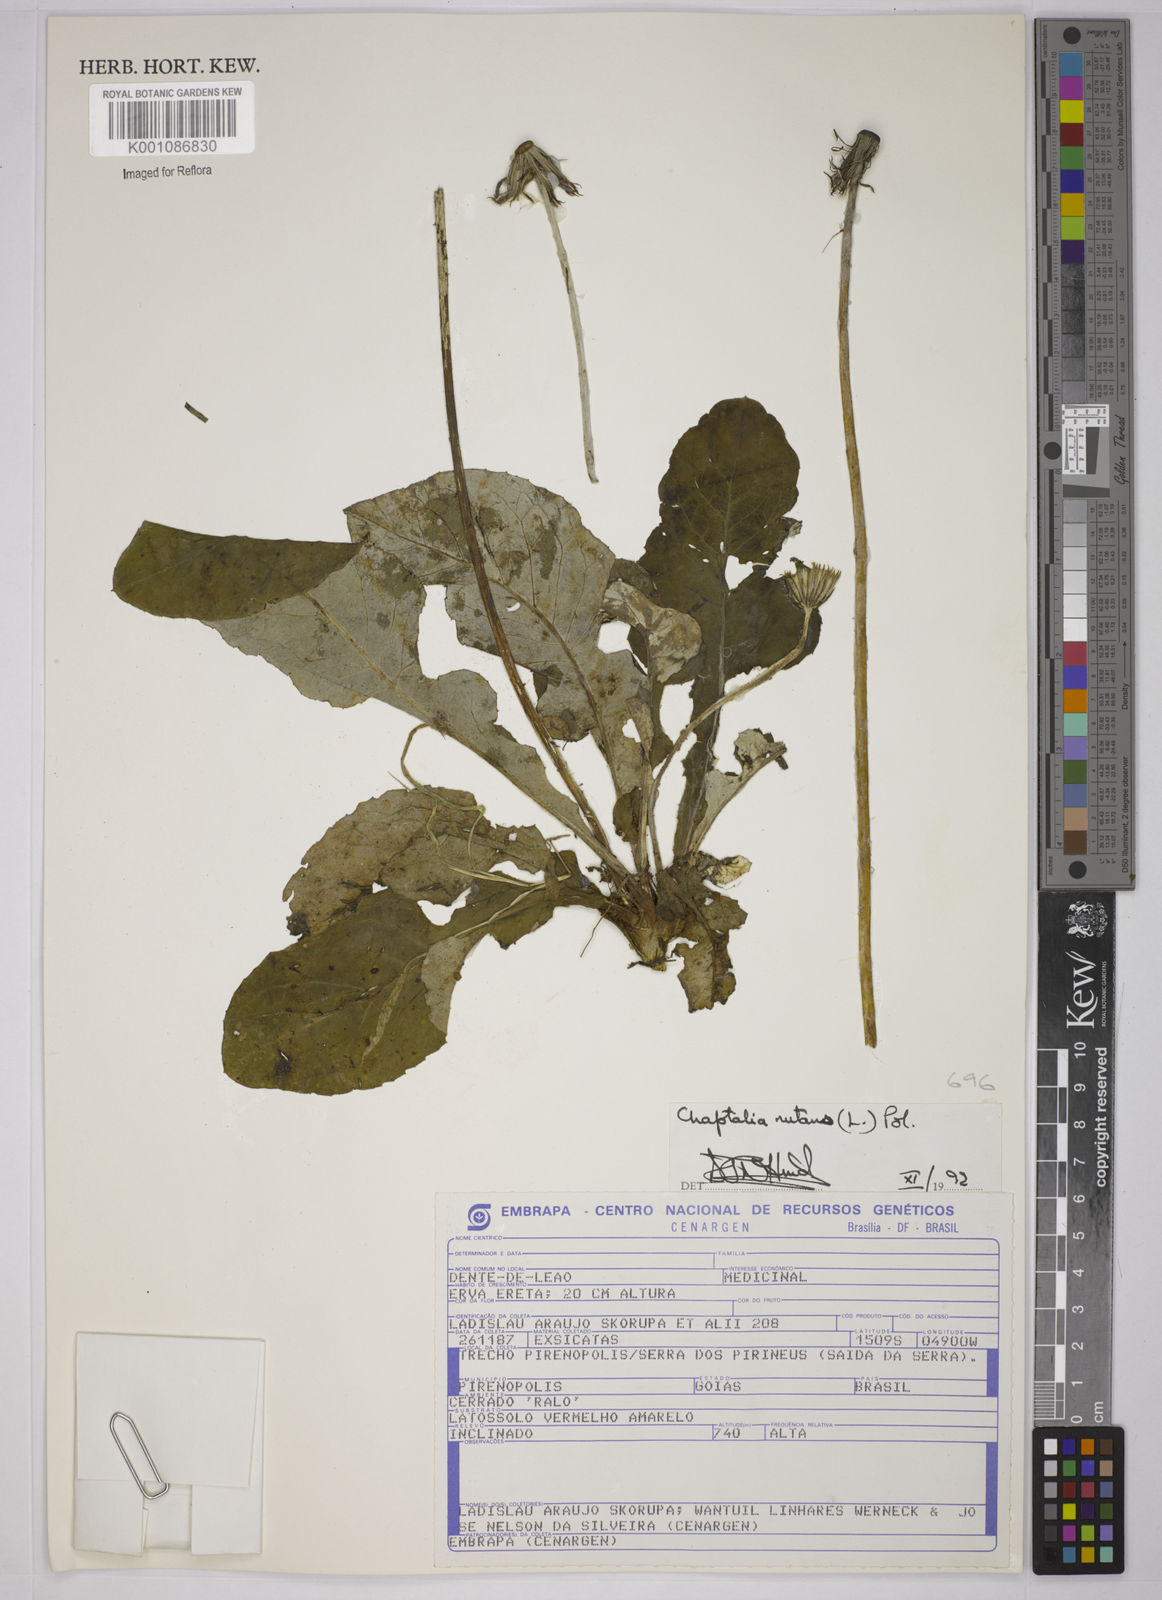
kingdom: Plantae
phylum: Tracheophyta
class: Magnoliopsida
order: Asterales
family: Asteraceae
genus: Chaptalia
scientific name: Chaptalia nutans
